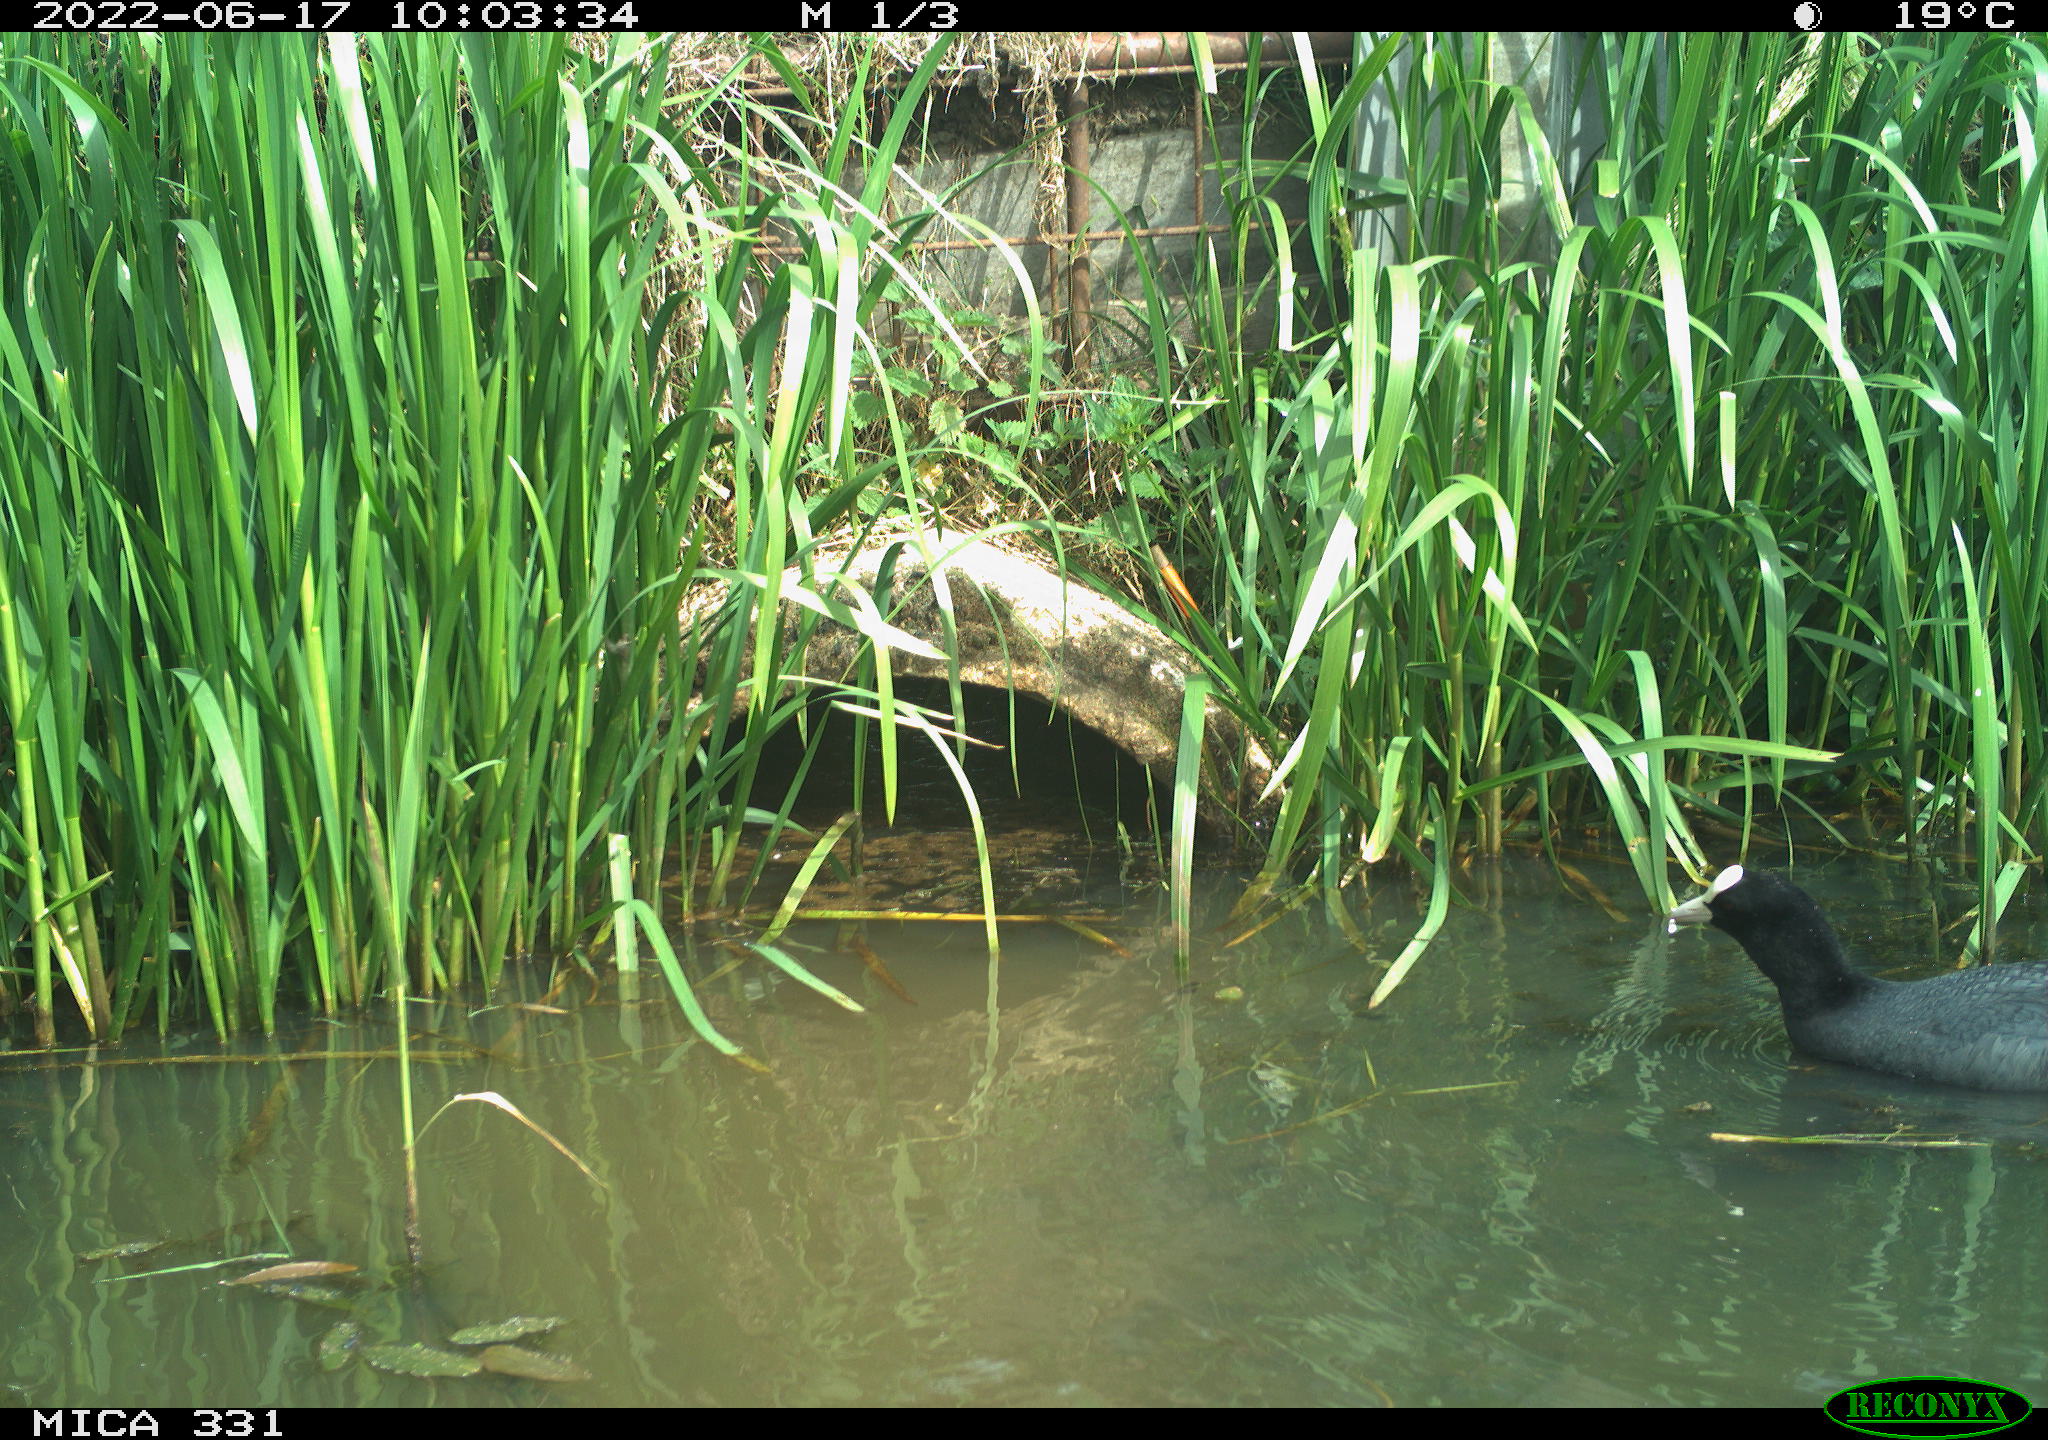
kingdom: Animalia
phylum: Chordata
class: Aves
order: Gruiformes
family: Rallidae
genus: Fulica
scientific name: Fulica atra
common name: Eurasian coot
